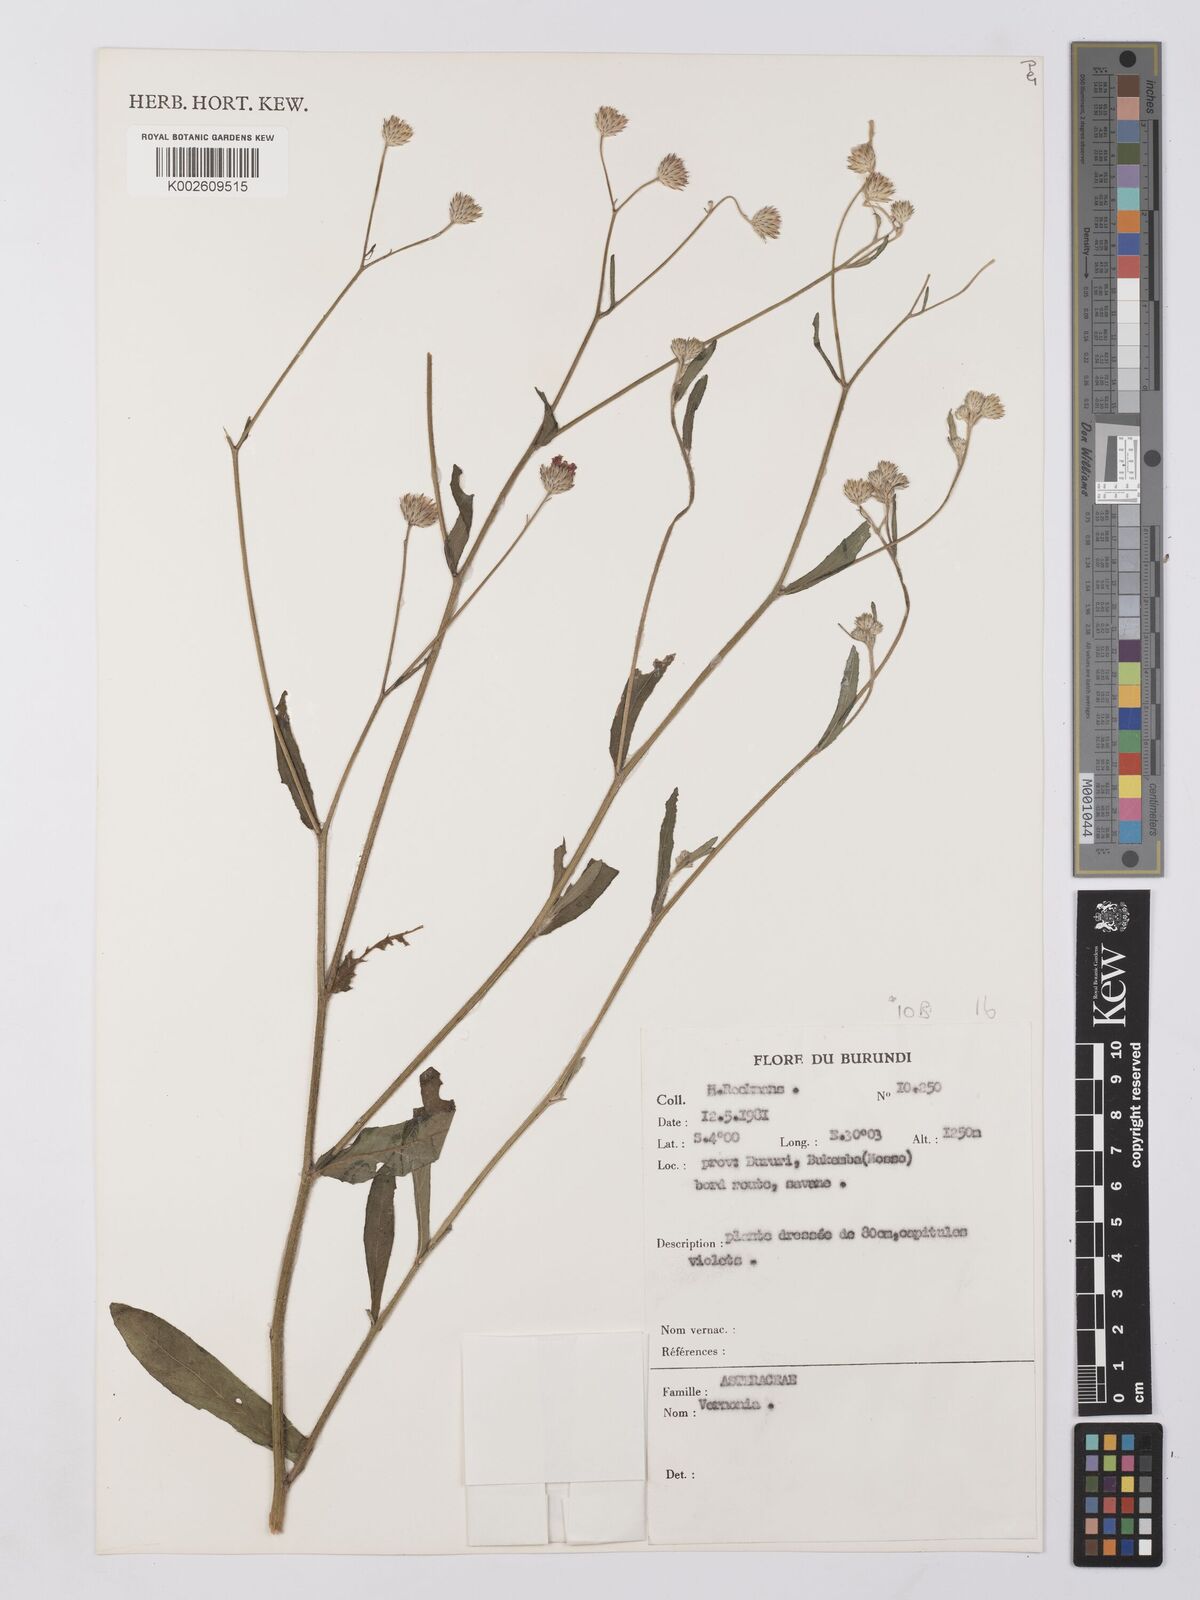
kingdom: Plantae
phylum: Tracheophyta
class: Magnoliopsida
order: Asterales
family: Asteraceae
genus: Vernonia
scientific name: Vernonia
